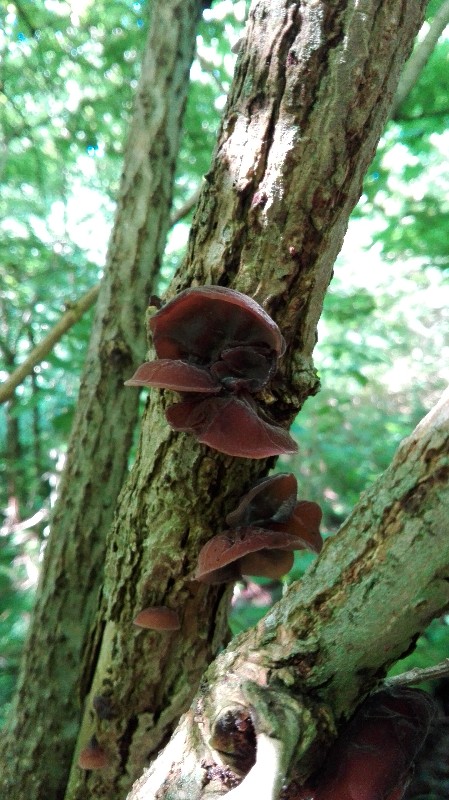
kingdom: Fungi
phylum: Basidiomycota
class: Agaricomycetes
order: Auriculariales
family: Auriculariaceae
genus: Auricularia
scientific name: Auricularia auricula-judae
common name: almindelig judasøre
